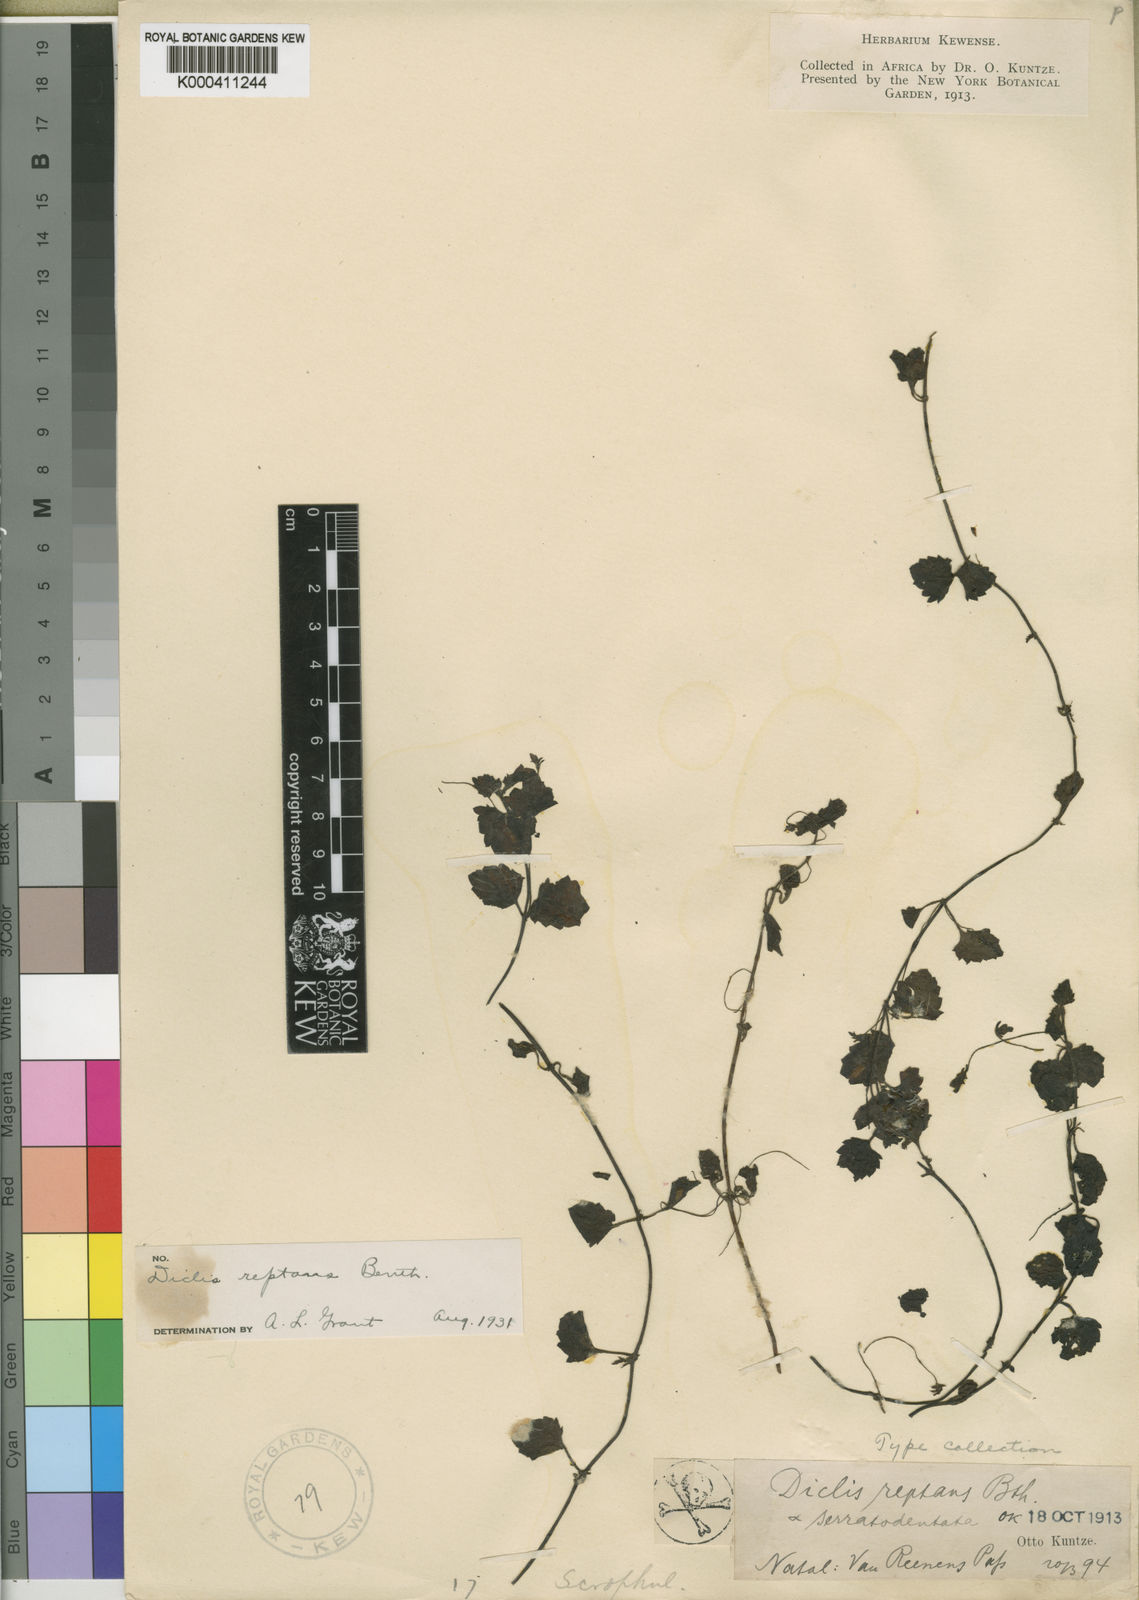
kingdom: Plantae
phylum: Tracheophyta
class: Magnoliopsida
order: Lamiales
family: Scrophulariaceae
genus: Diclis
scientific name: Diclis reptans
